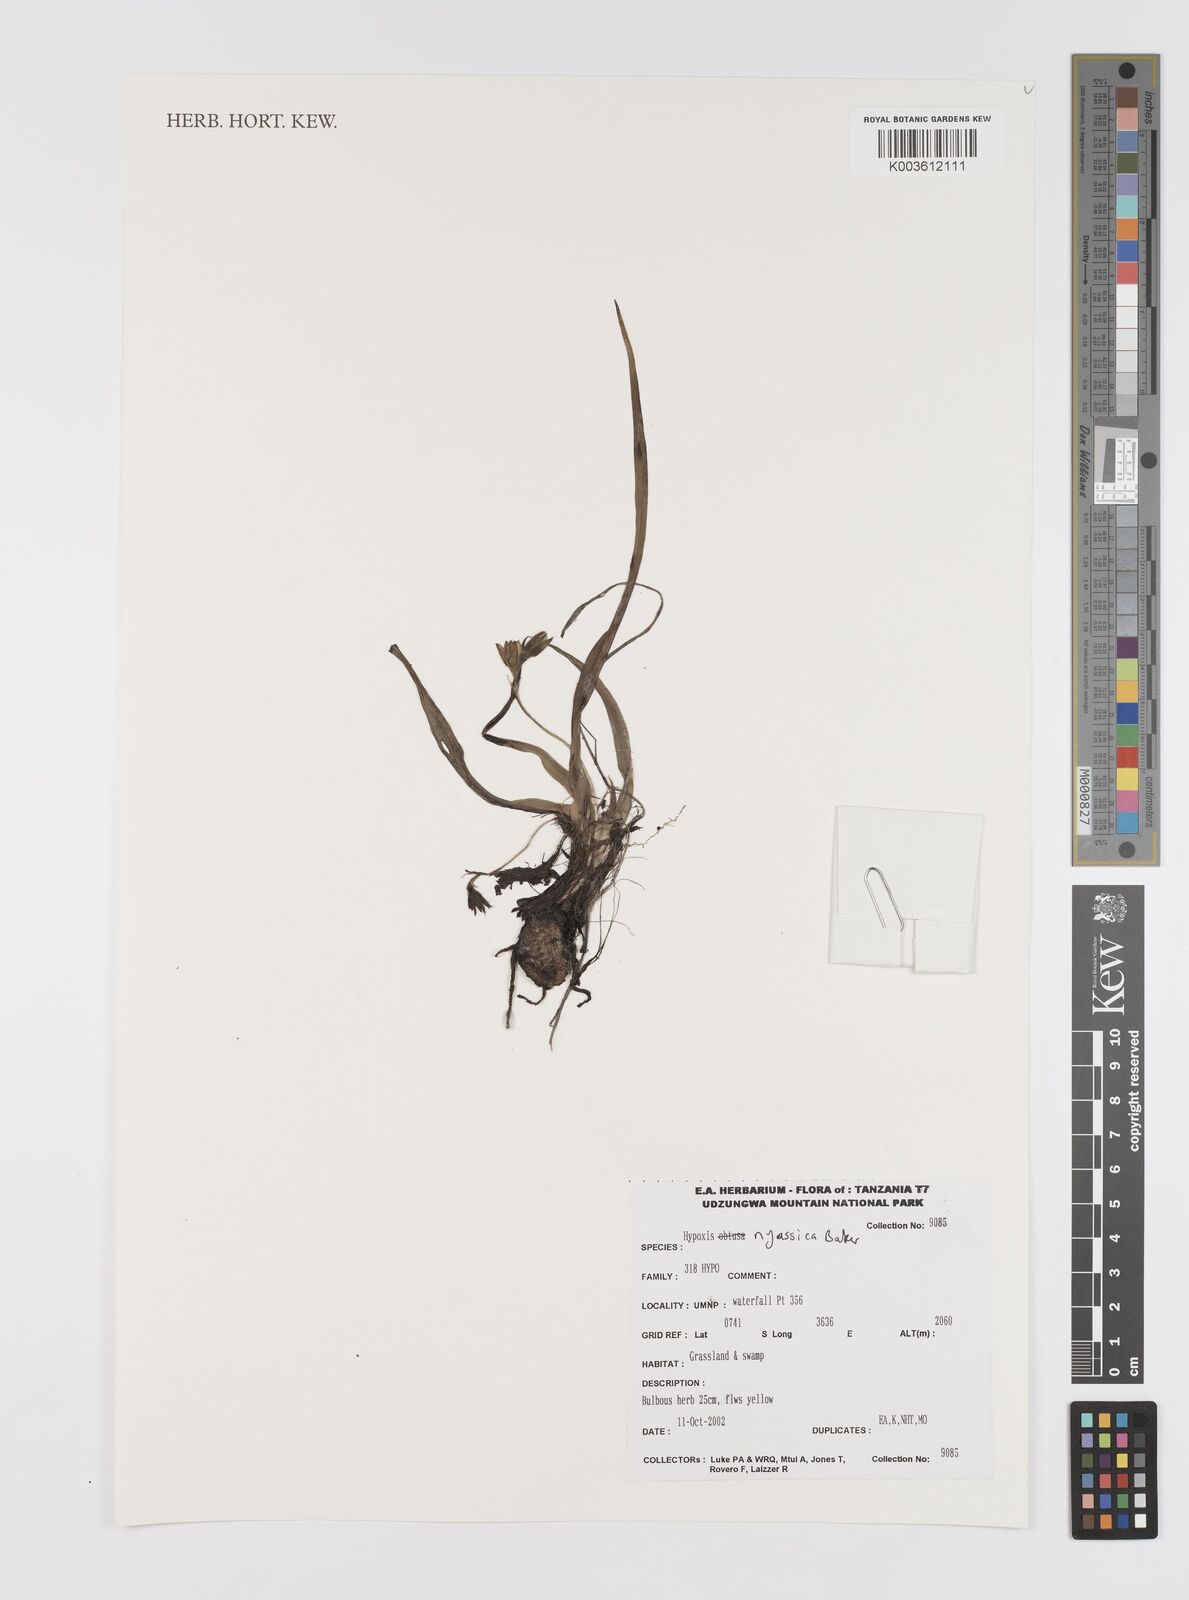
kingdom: Plantae
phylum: Tracheophyta
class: Liliopsida
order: Asparagales
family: Hypoxidaceae
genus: Hypoxis
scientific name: Hypoxis nyasica
